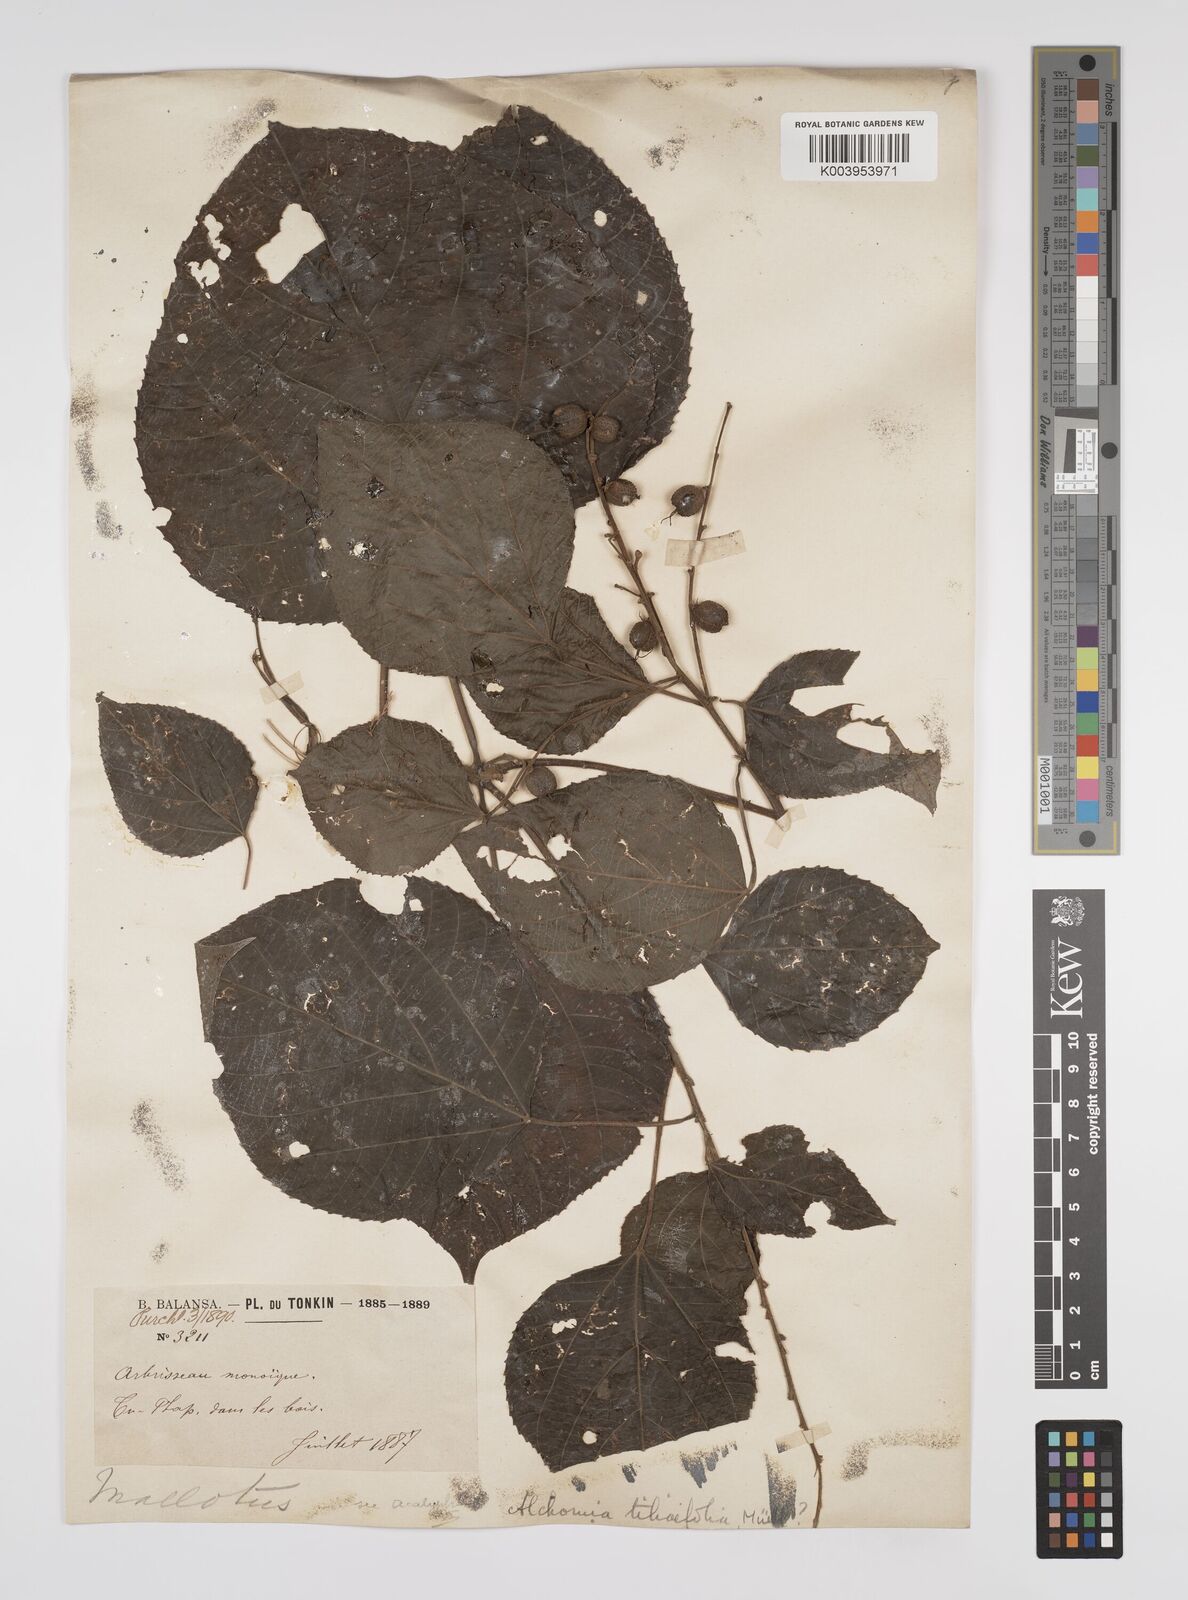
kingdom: Plantae
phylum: Tracheophyta
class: Magnoliopsida
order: Malpighiales
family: Euphorbiaceae
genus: Alchornea
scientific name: Alchornea tiliifolia
